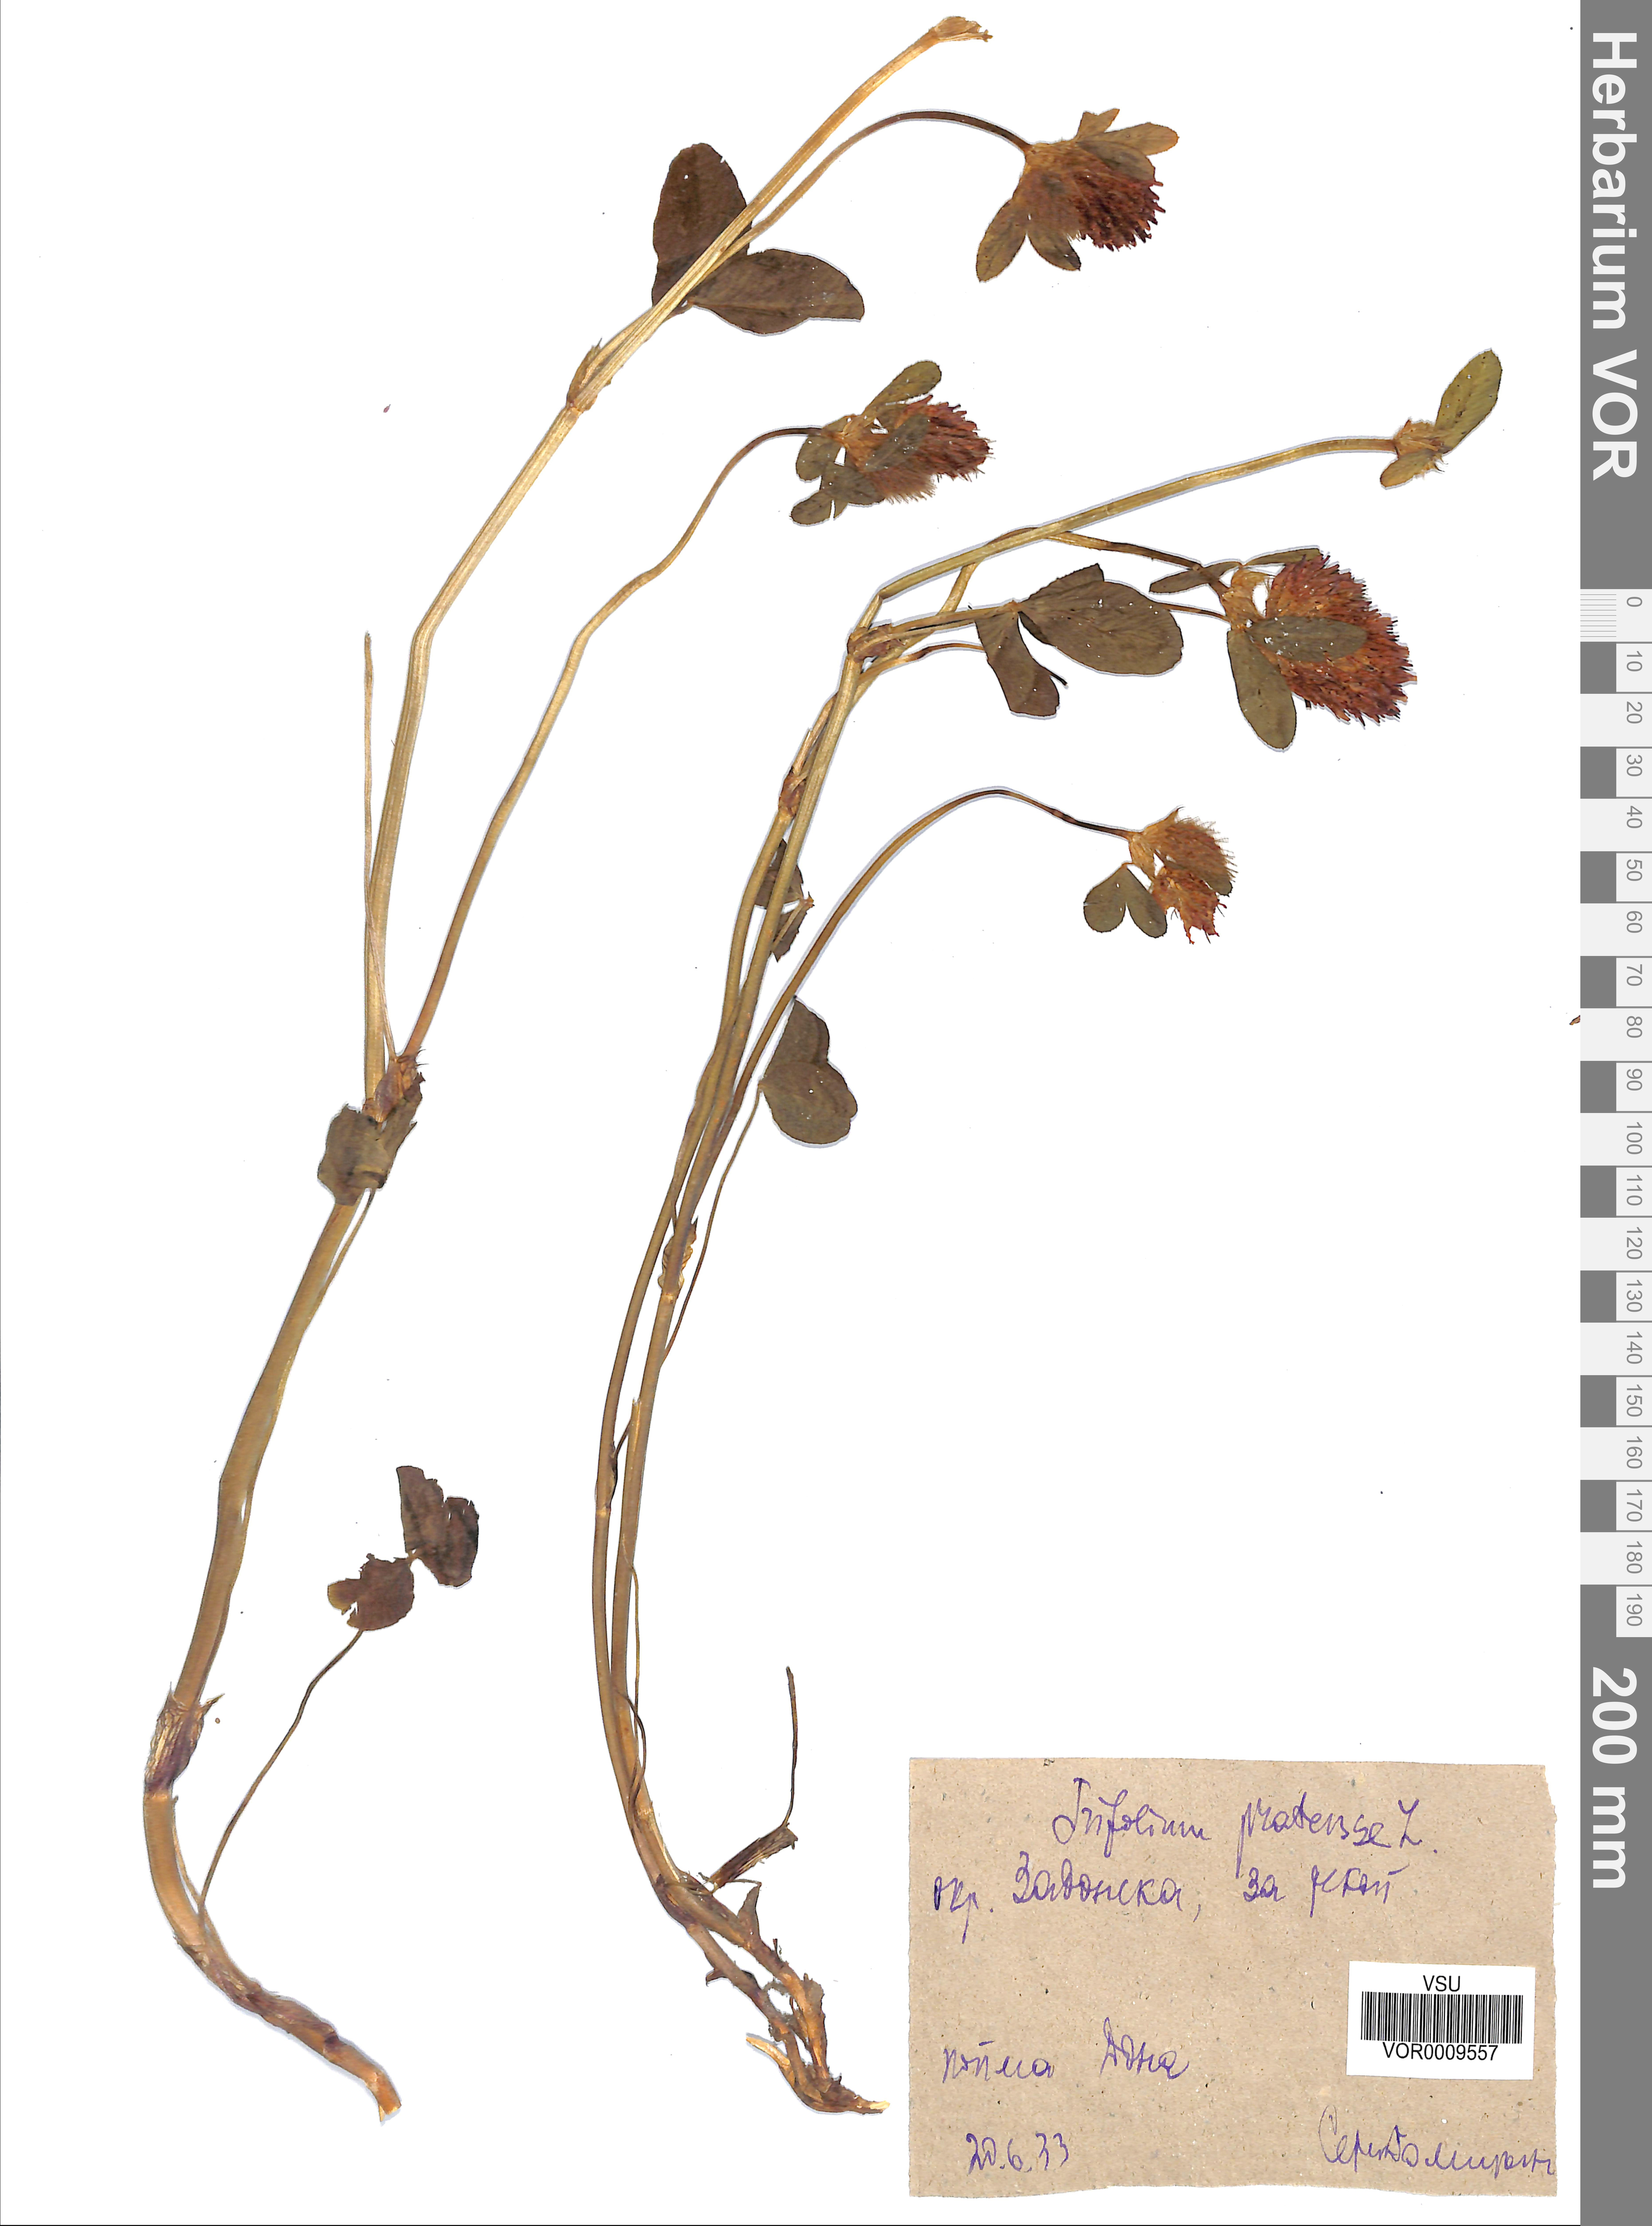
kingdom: Plantae
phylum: Tracheophyta
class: Magnoliopsida
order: Fabales
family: Fabaceae
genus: Trifolium
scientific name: Trifolium pratense
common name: Red clover
